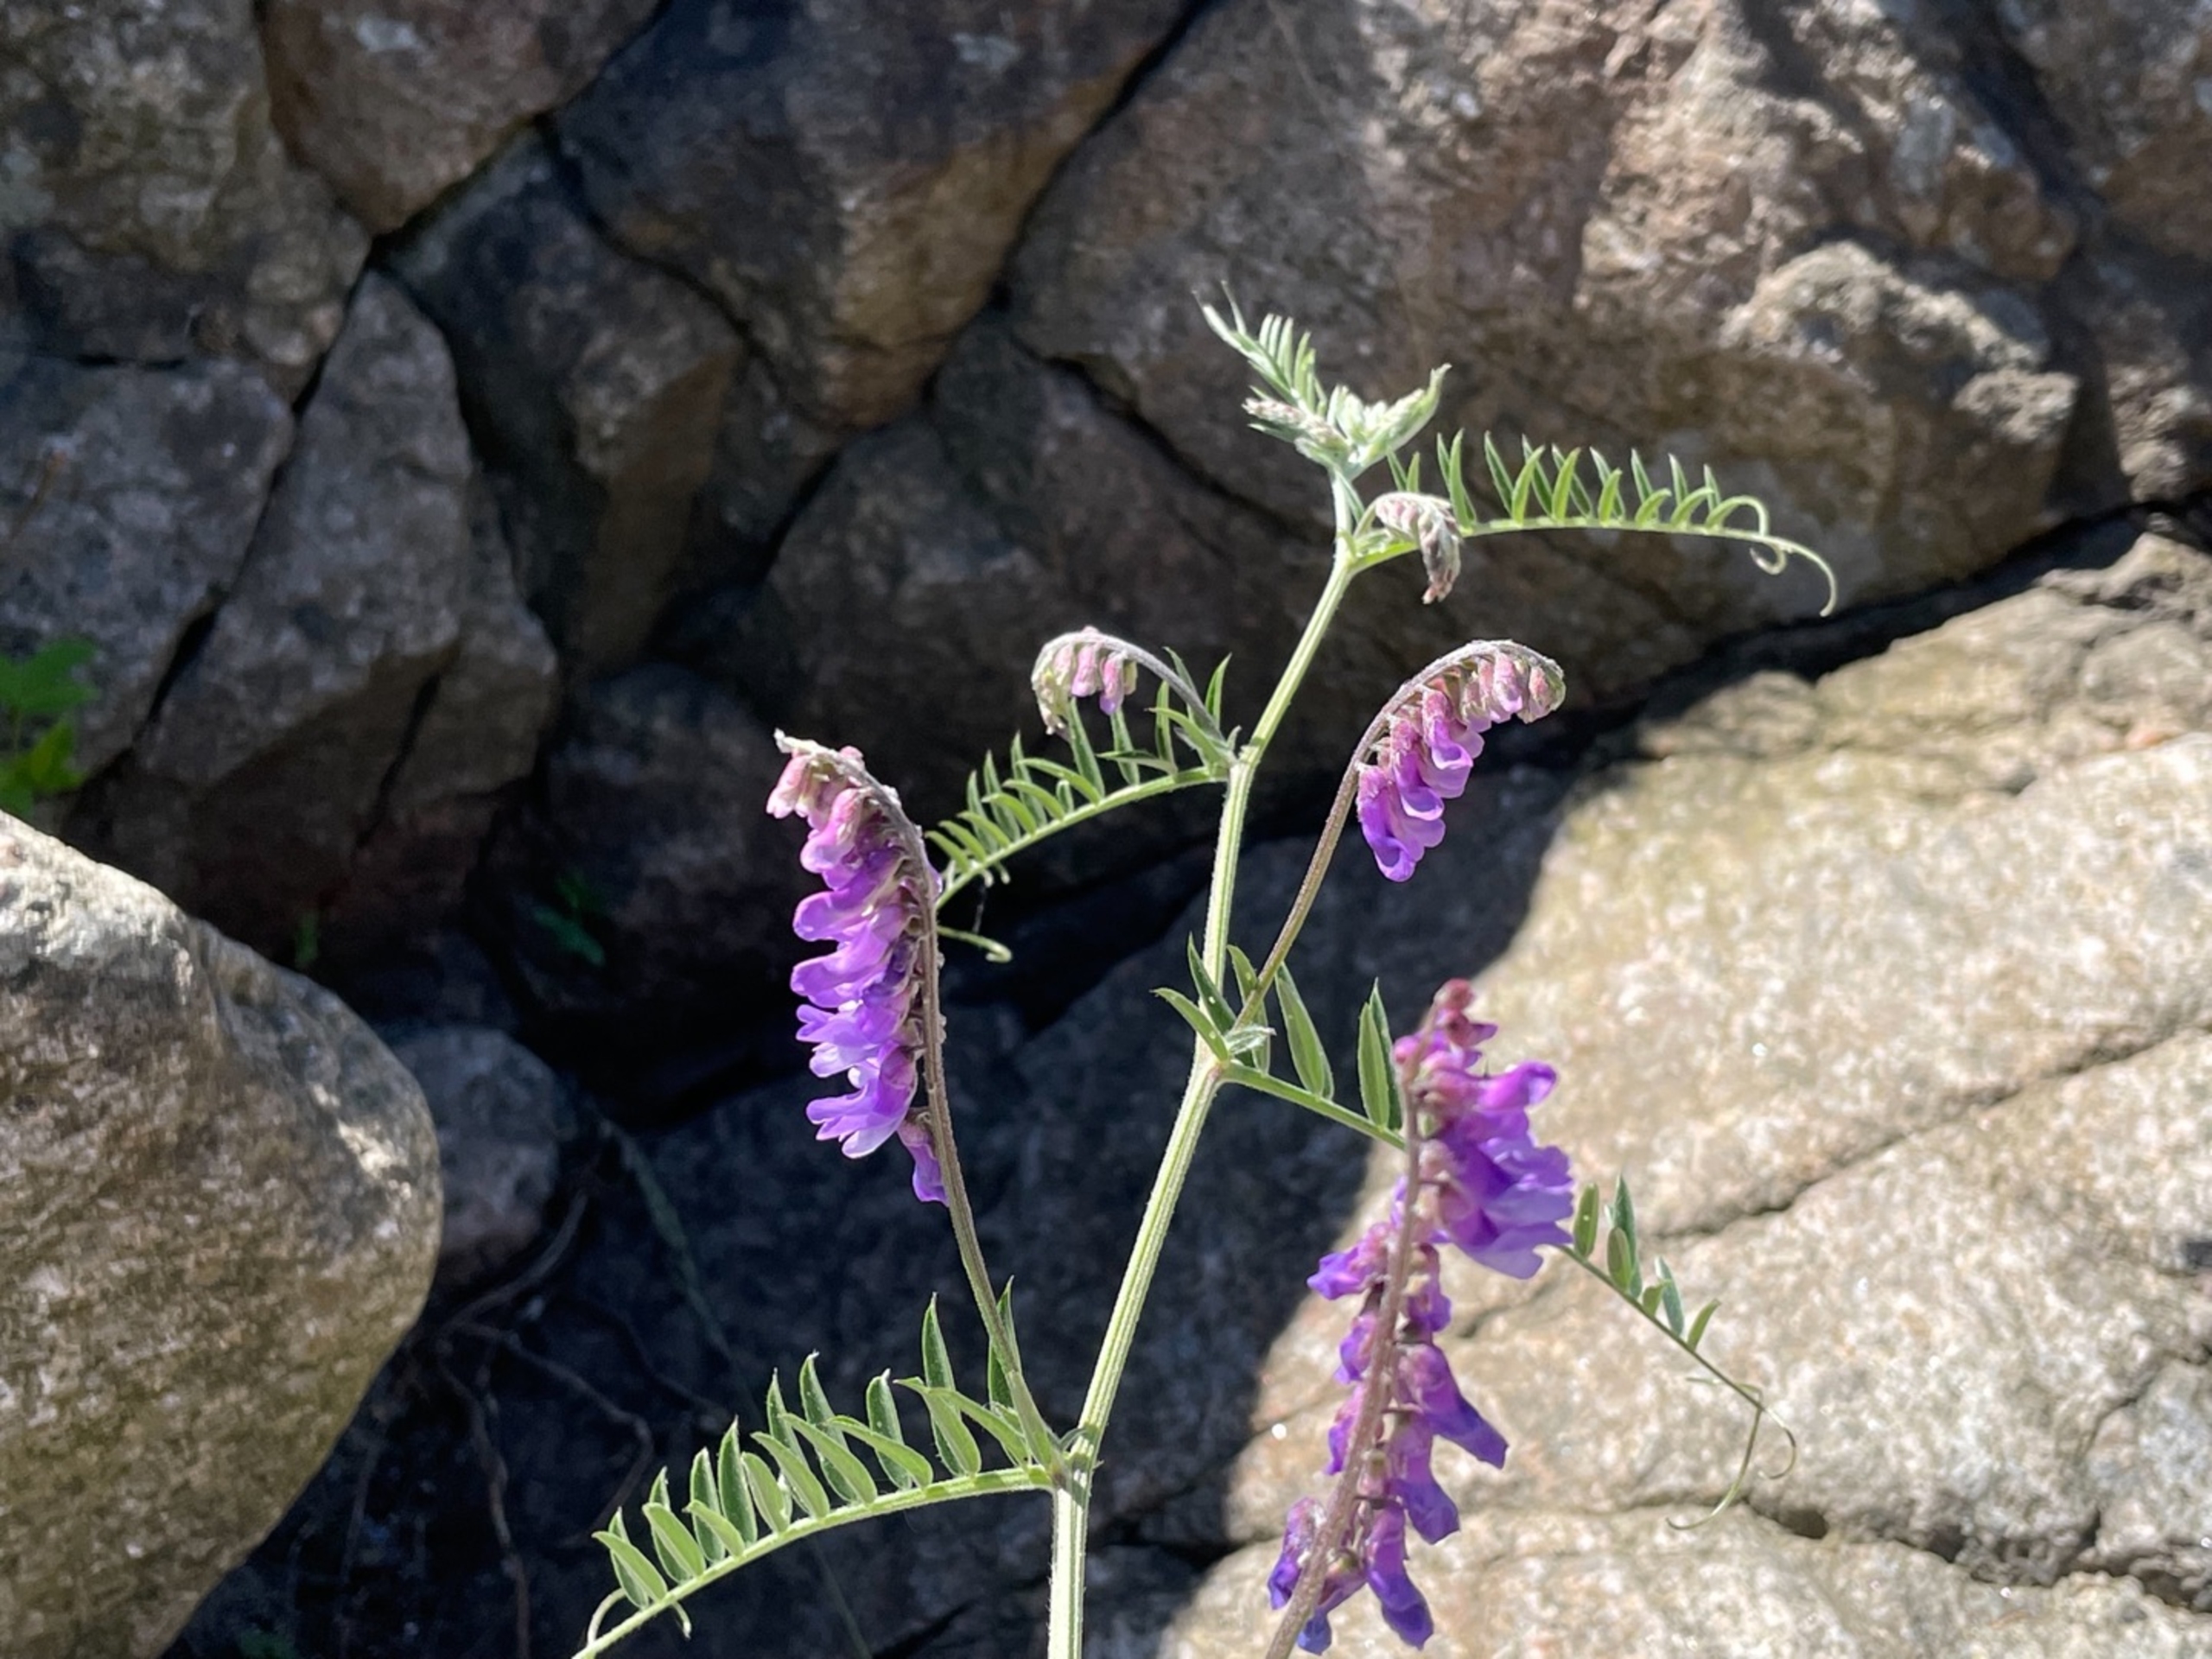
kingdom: Plantae
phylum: Tracheophyta
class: Magnoliopsida
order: Fabales
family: Fabaceae
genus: Vicia
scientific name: Vicia cracca
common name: Muse-vikke
